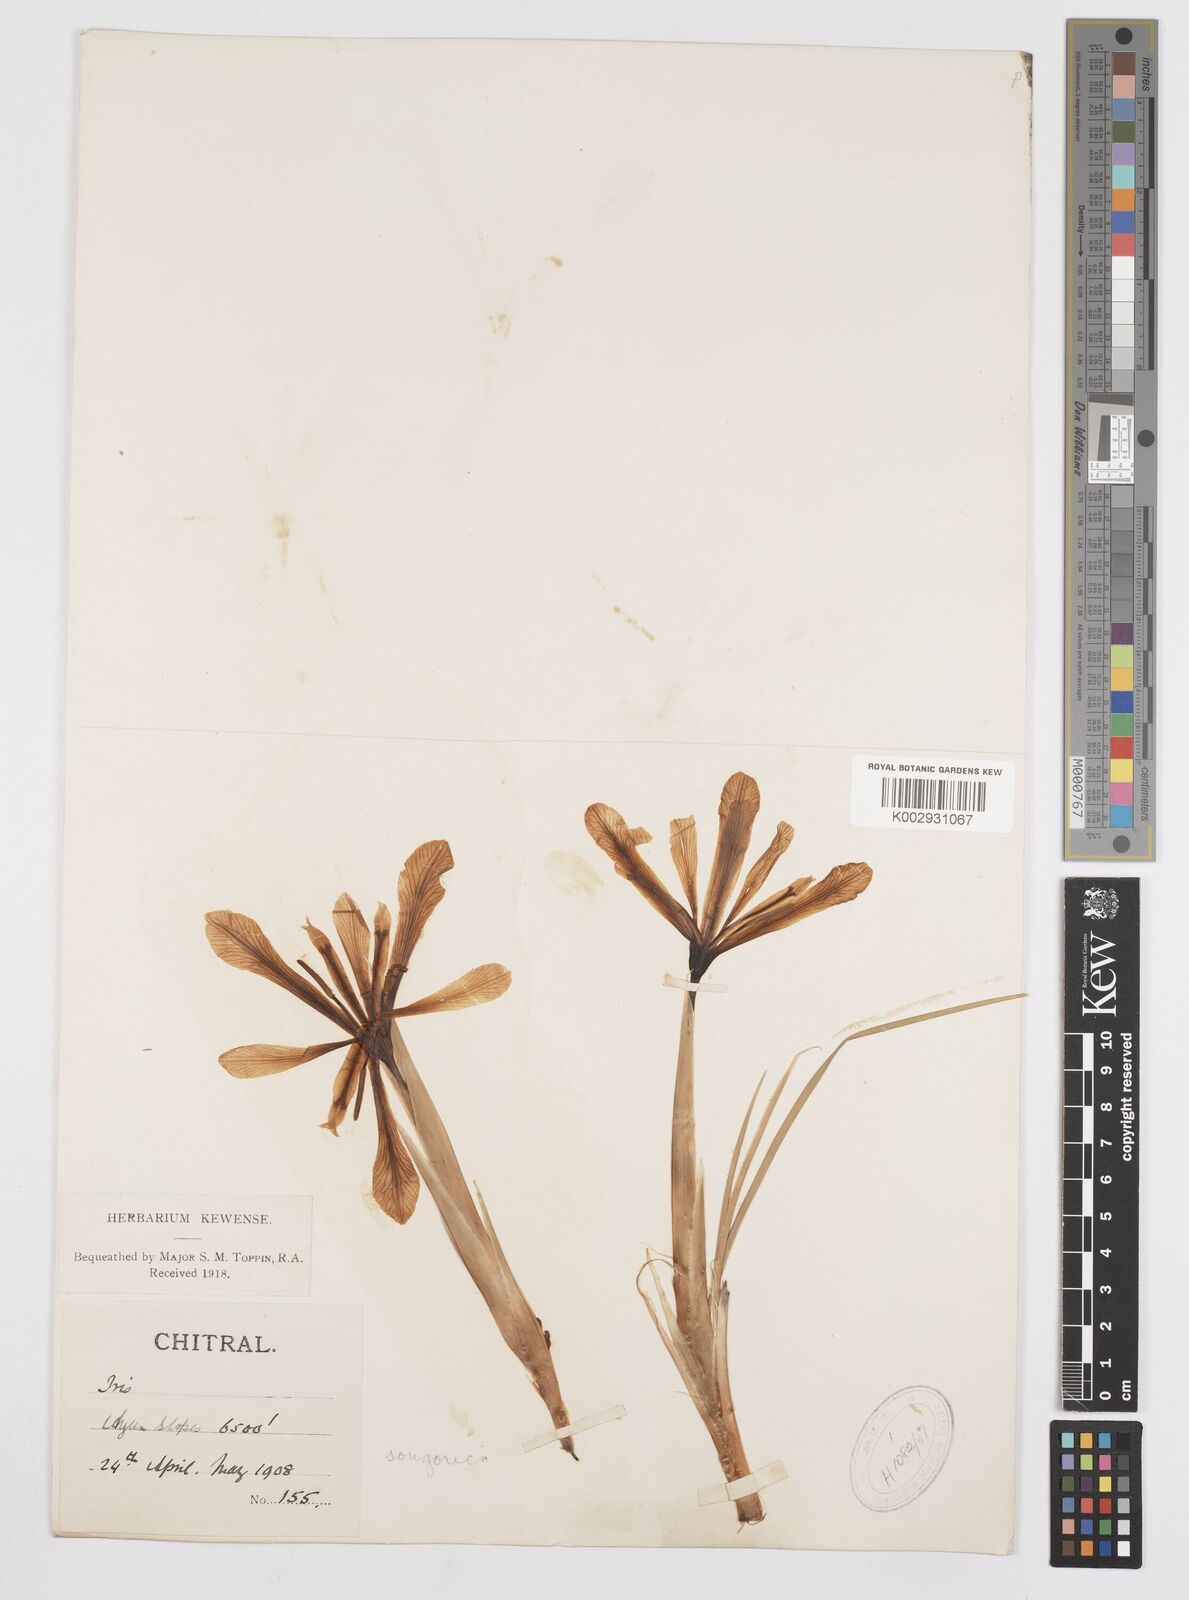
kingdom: Plantae
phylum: Tracheophyta
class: Liliopsida
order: Asparagales
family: Iridaceae
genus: Iris
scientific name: Iris tenuifolia
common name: Slender-leaf iris
